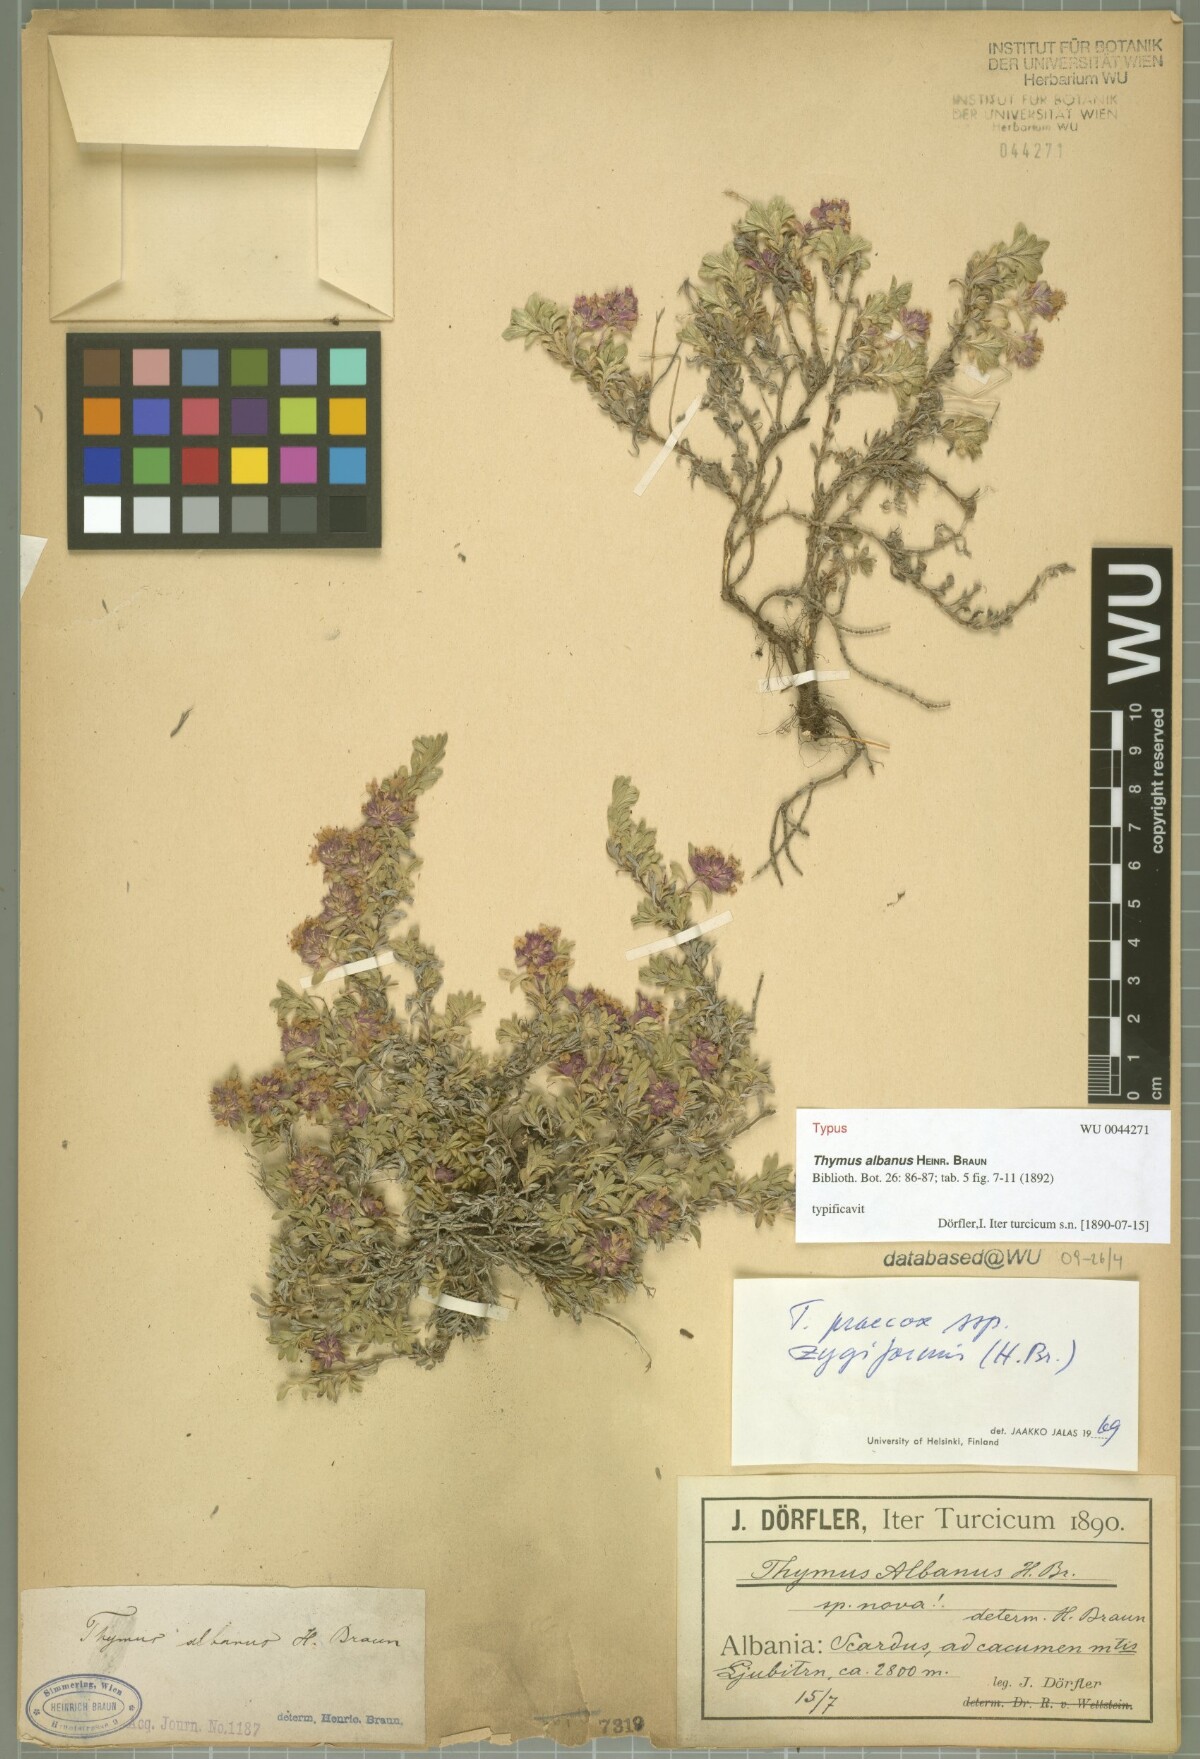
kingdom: Plantae
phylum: Tracheophyta
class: Magnoliopsida
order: Lamiales
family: Lamiaceae
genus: Thymus
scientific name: Thymus albanus
